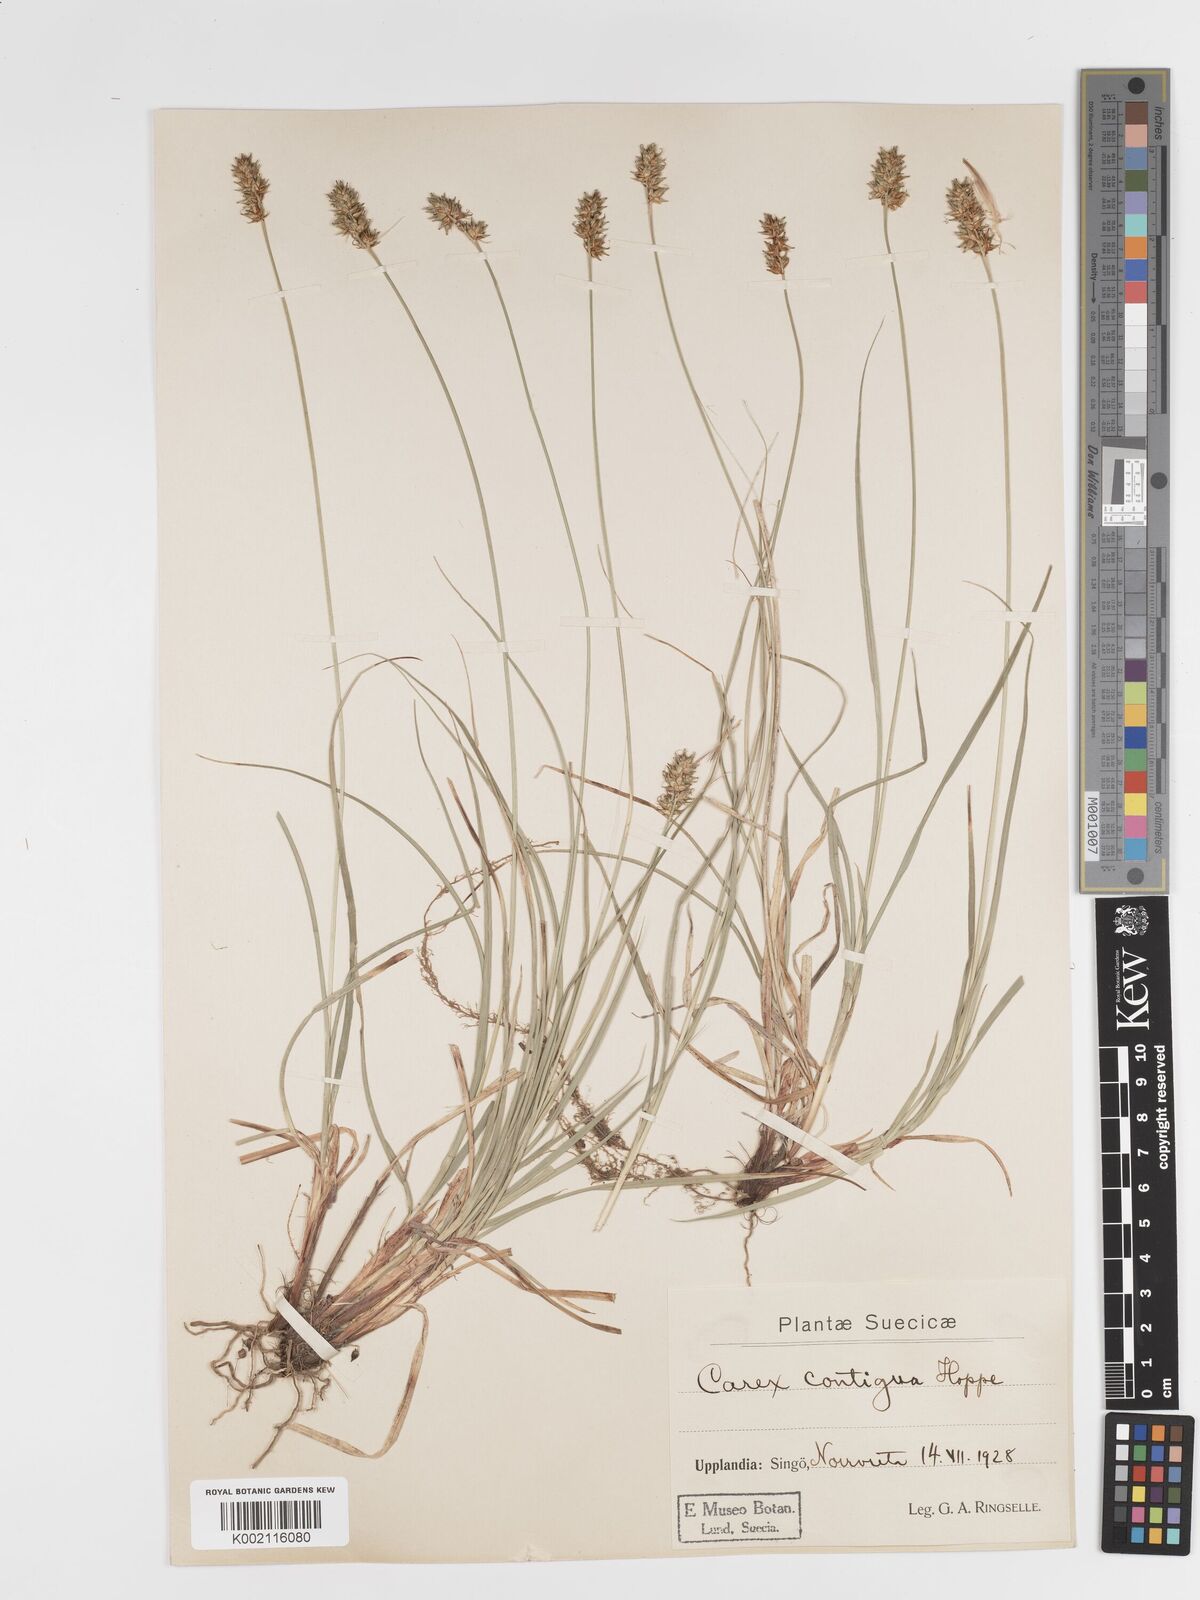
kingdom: Plantae
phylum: Tracheophyta
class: Liliopsida
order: Poales
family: Cyperaceae
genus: Carex
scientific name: Carex spicata
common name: Spiked sedge
